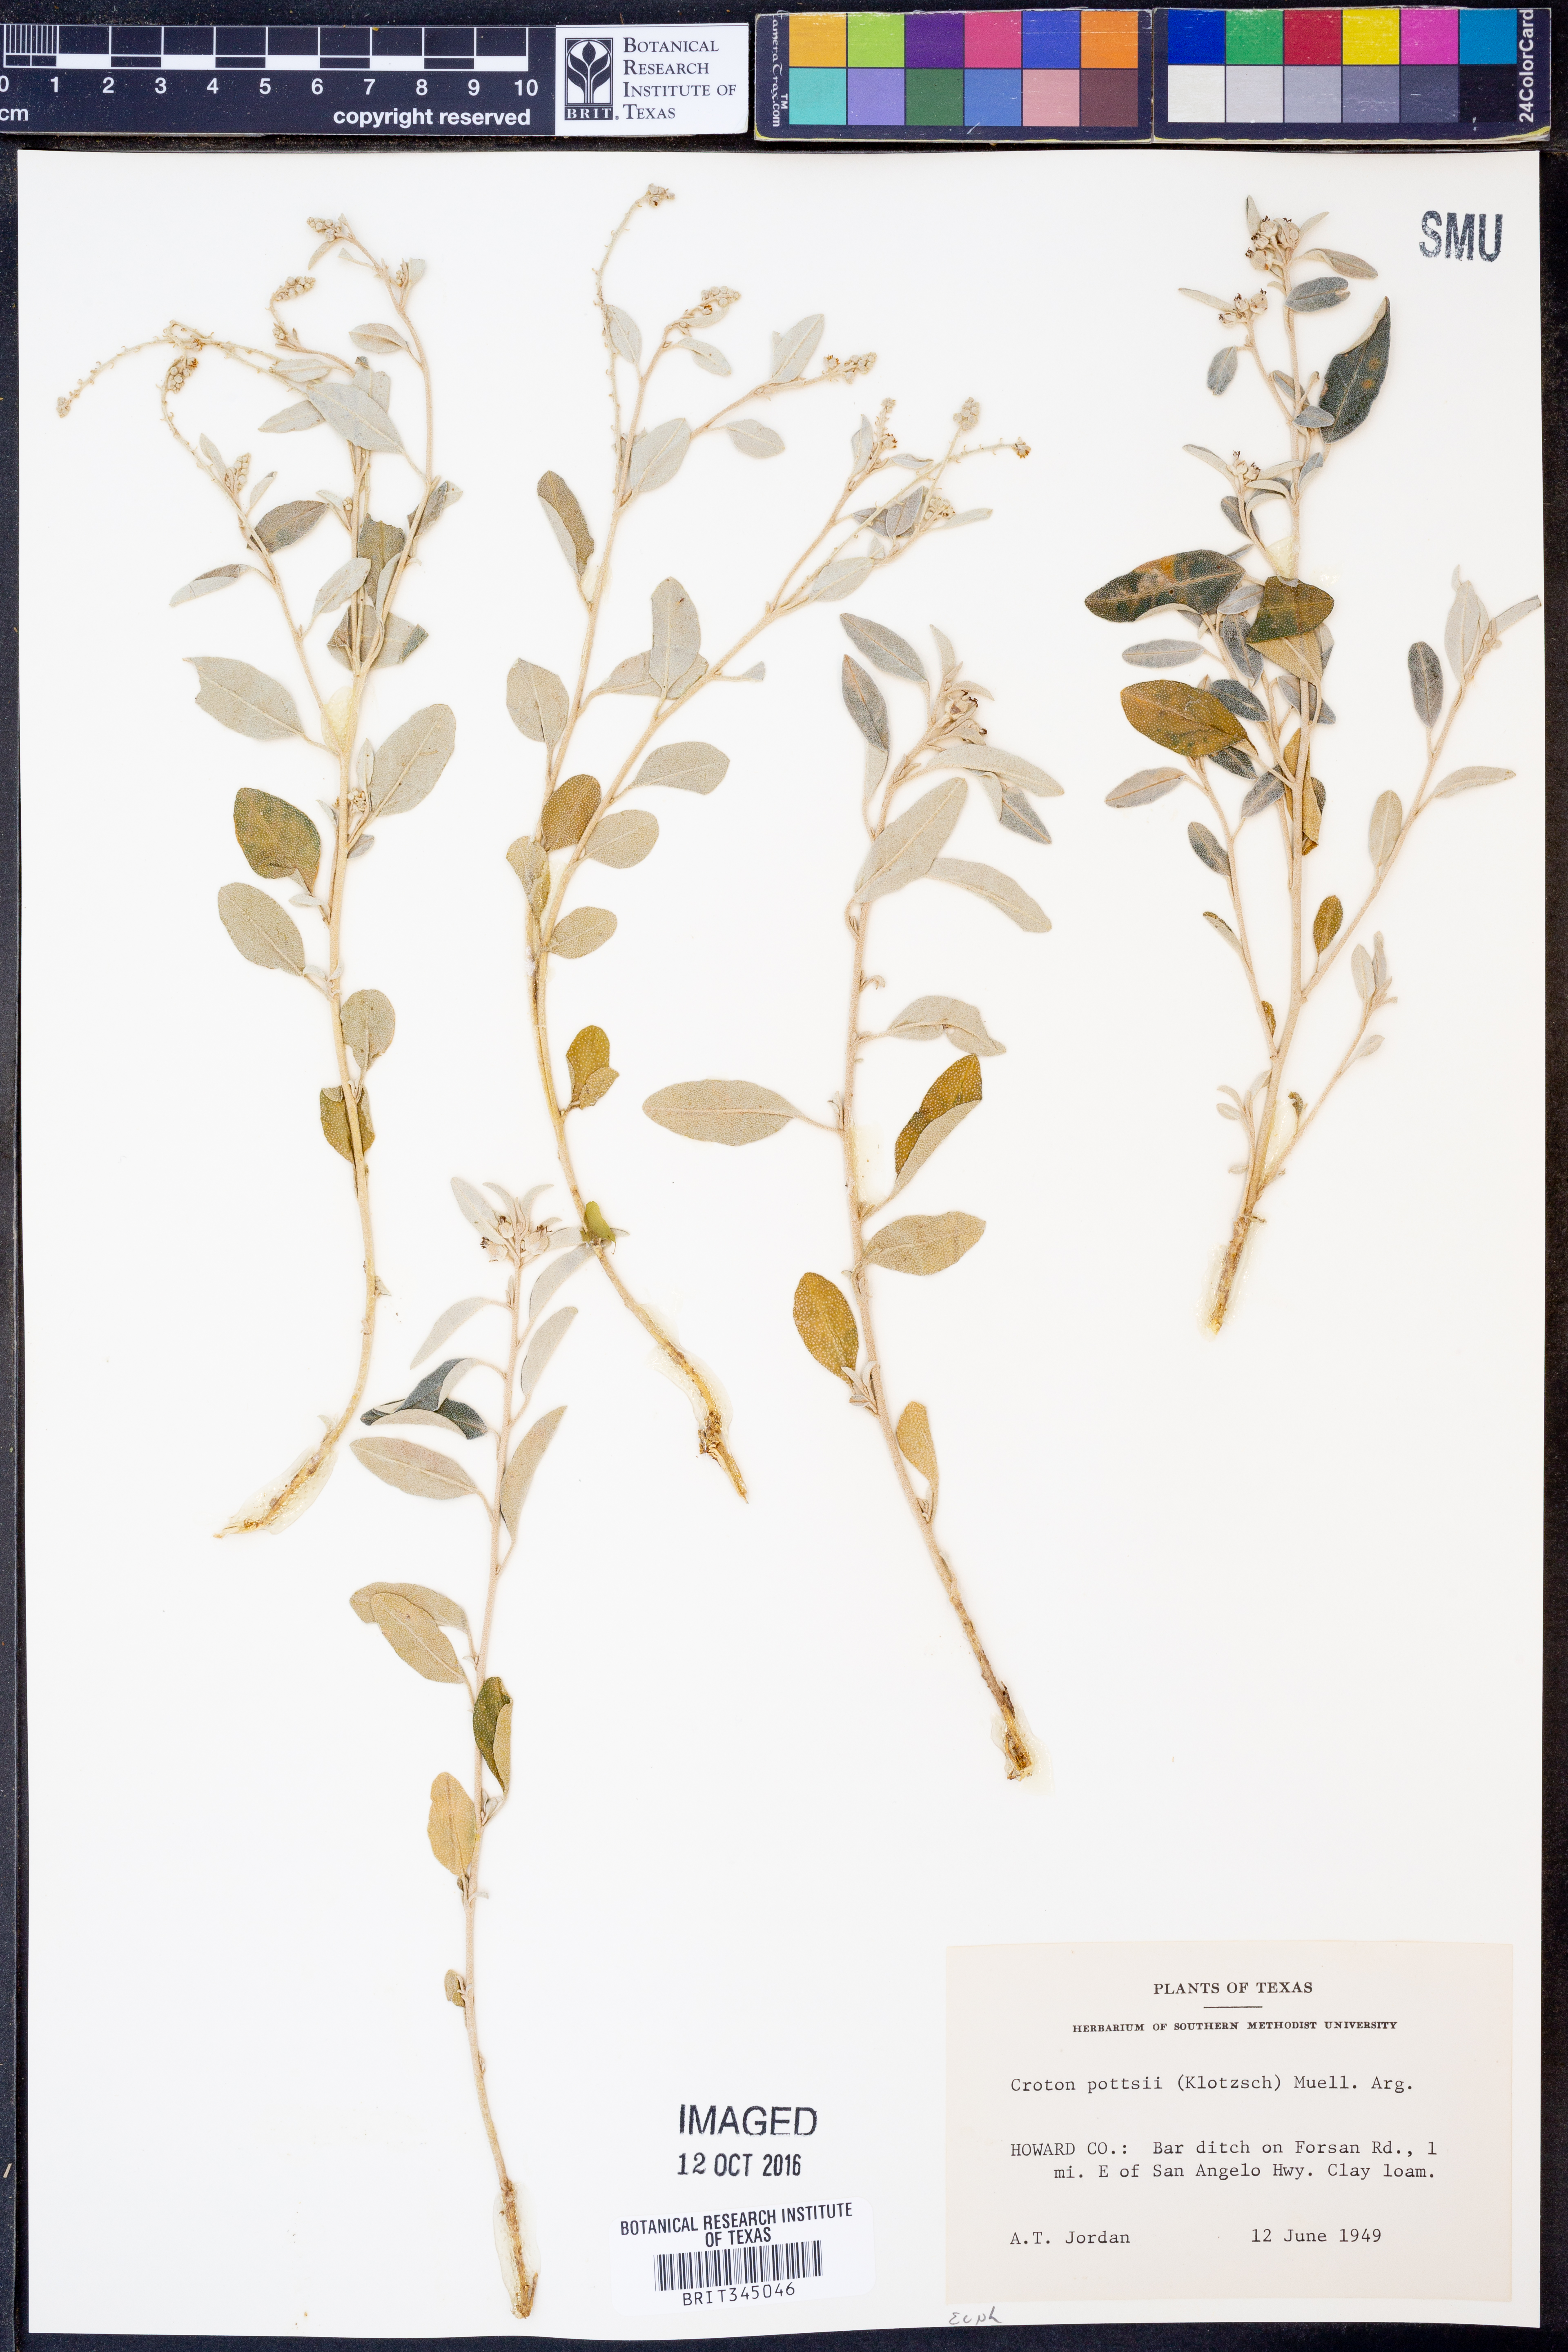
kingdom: Plantae
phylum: Tracheophyta
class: Magnoliopsida
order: Malpighiales
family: Euphorbiaceae
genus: Croton
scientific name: Croton pottsii
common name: Leatherweed
